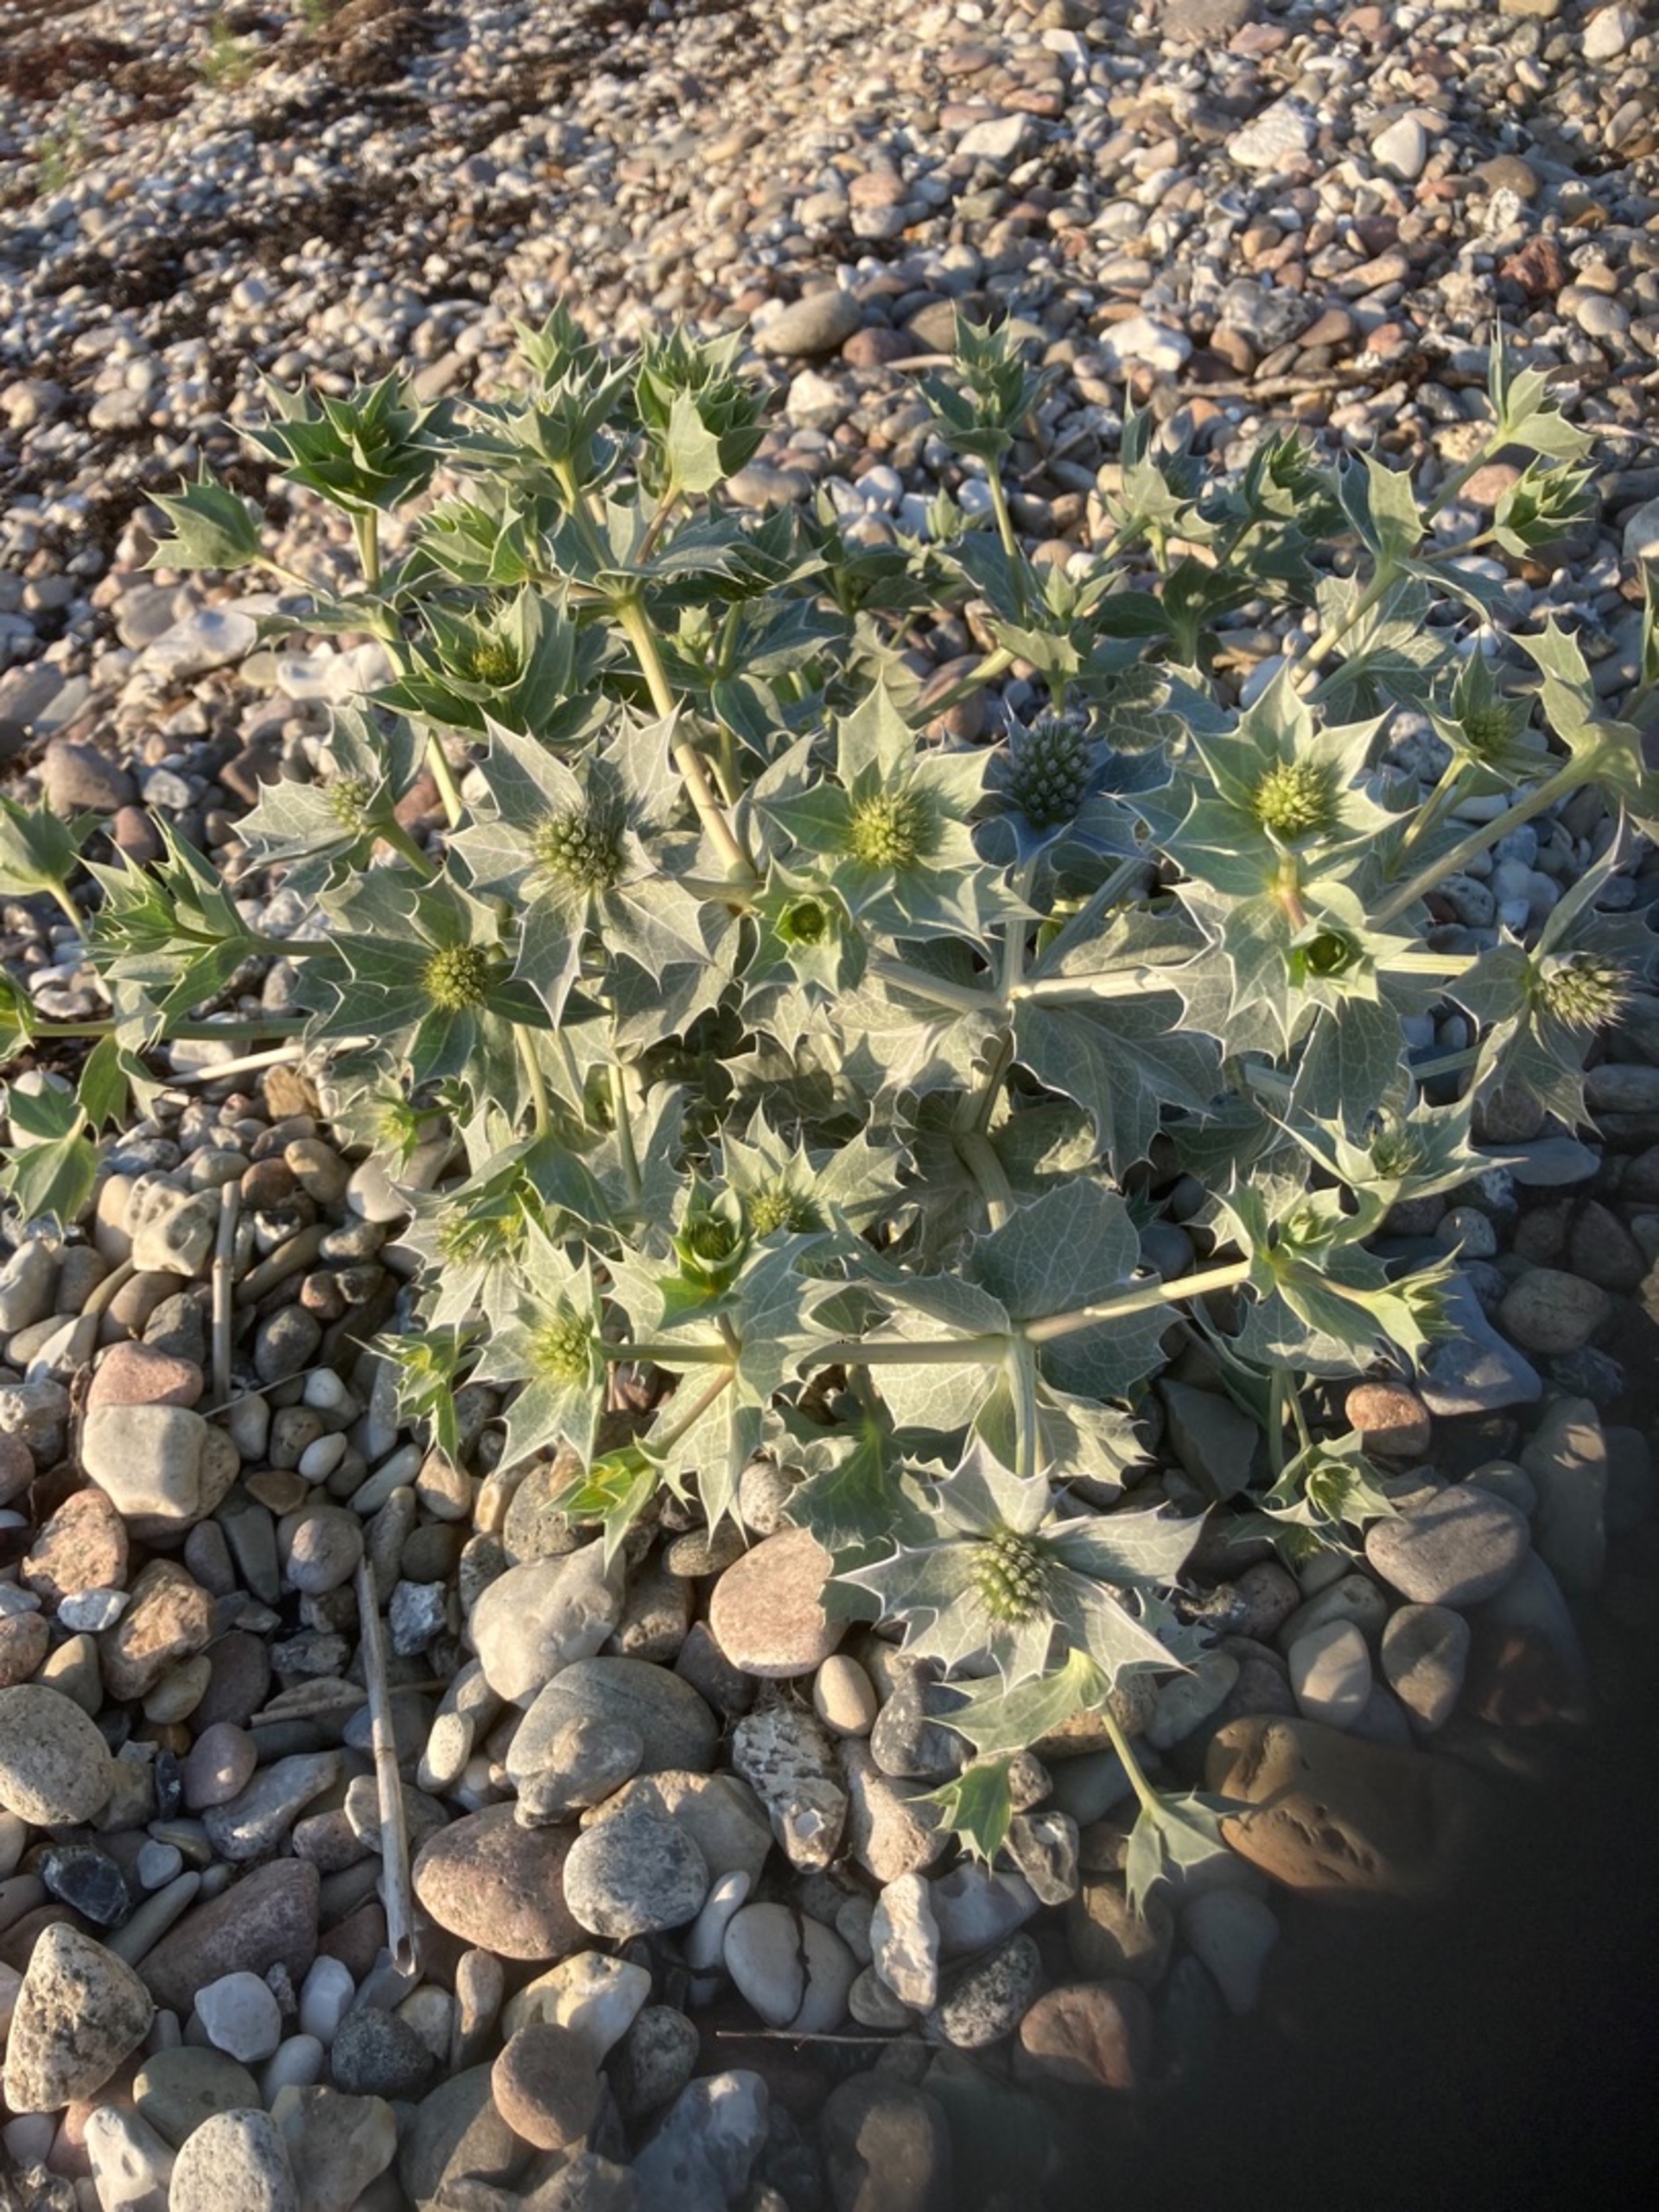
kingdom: Plantae
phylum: Tracheophyta
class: Magnoliopsida
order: Apiales
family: Apiaceae
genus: Eryngium
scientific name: Eryngium maritimum
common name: Strand-mandstro
